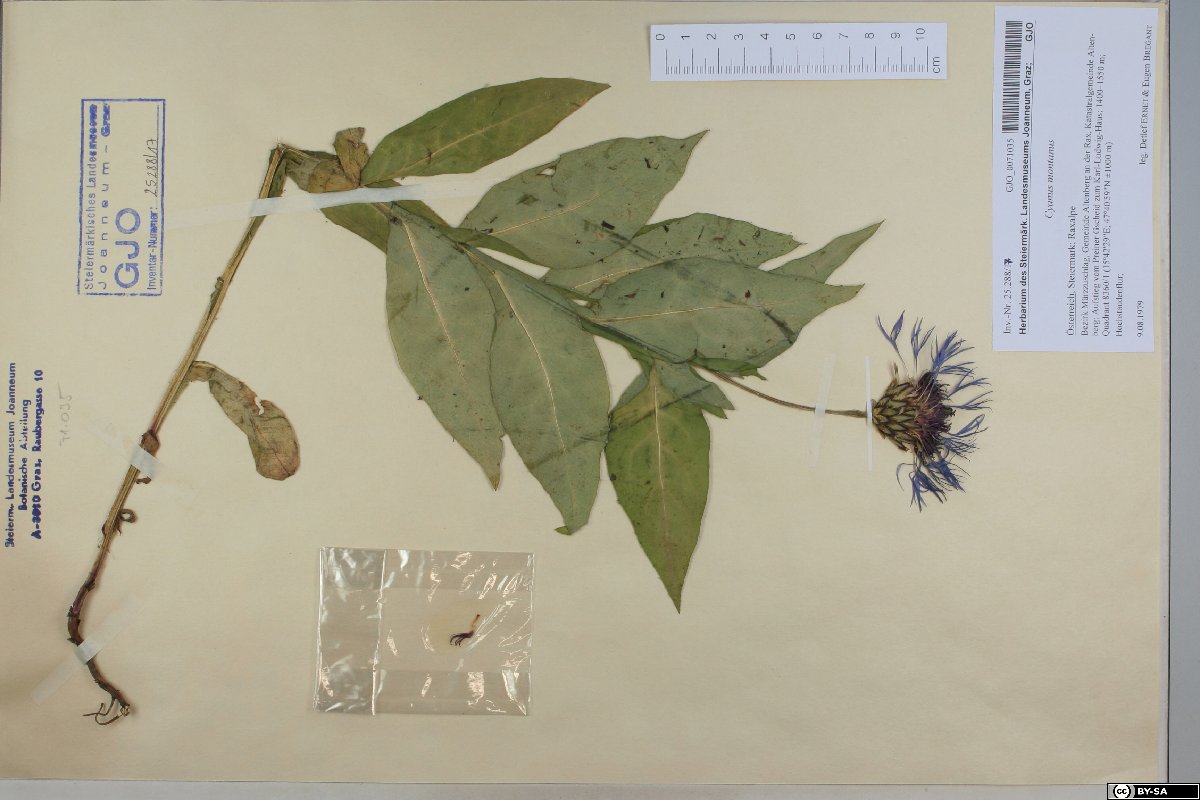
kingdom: Plantae
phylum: Tracheophyta
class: Magnoliopsida
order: Asterales
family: Asteraceae
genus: Centaurea
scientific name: Centaurea montana
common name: Perennial cornflower
